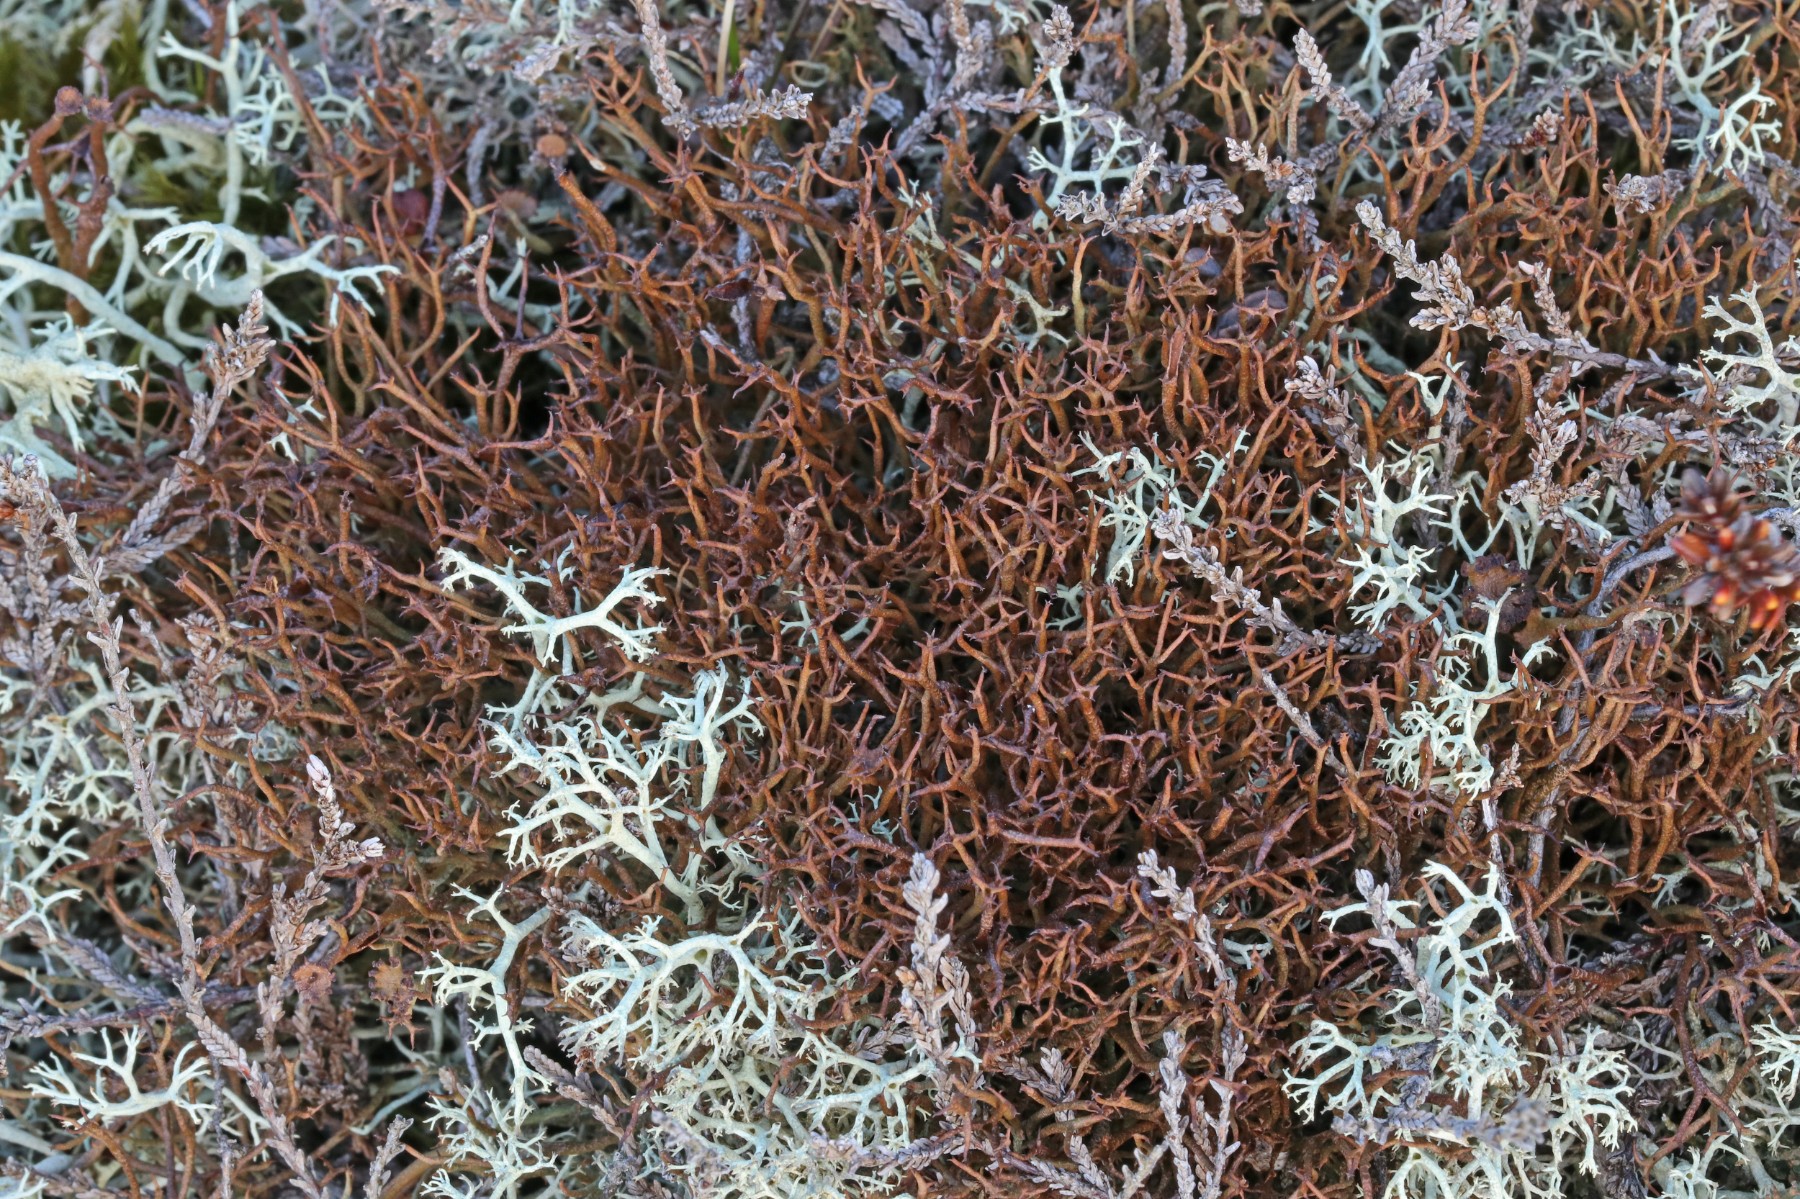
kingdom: Fungi
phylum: Ascomycota
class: Lecanoromycetes
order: Lecanorales
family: Cladoniaceae
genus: Cladonia
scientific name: Cladonia crispata
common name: takket bægerlav
